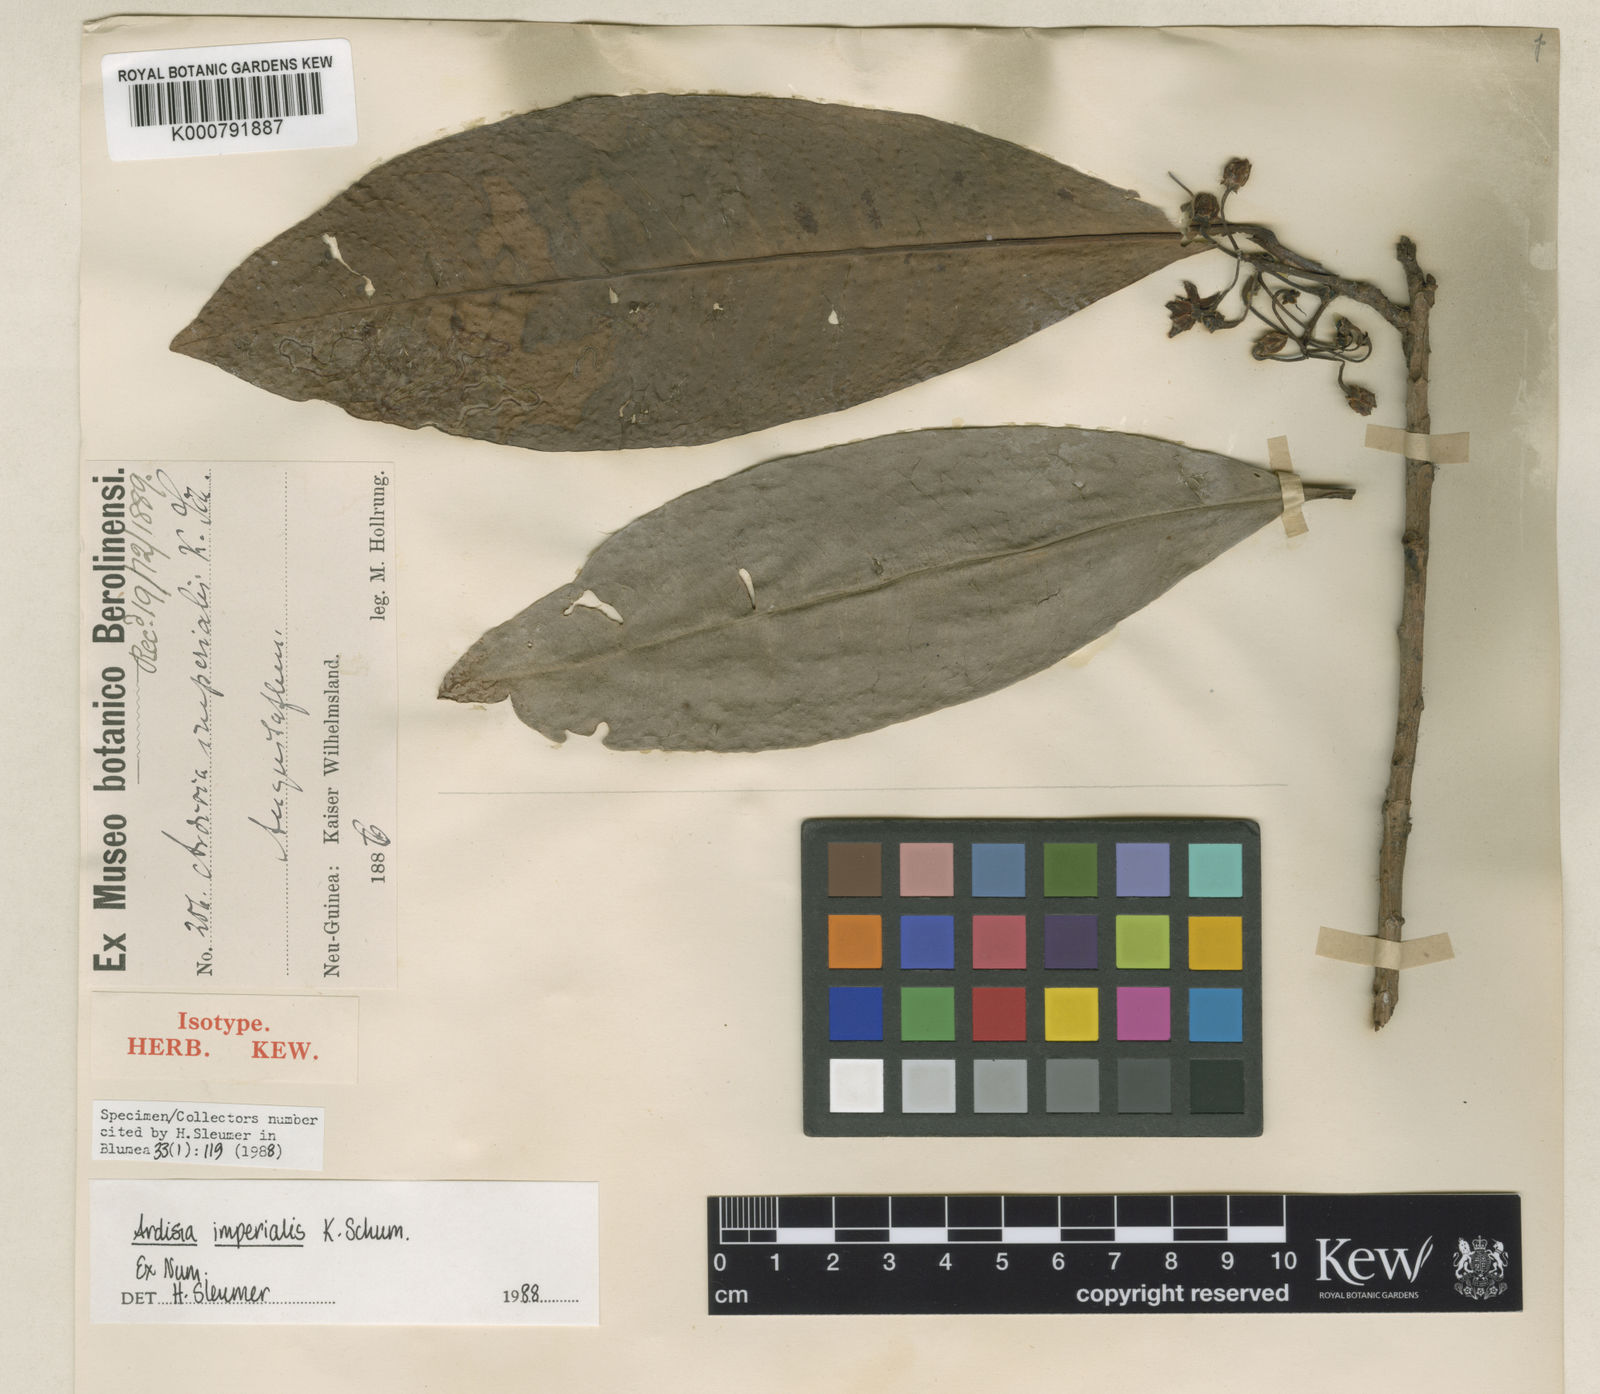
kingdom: Plantae
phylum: Tracheophyta
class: Magnoliopsida
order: Ericales
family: Primulaceae
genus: Ardisia
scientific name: Ardisia imperialis
